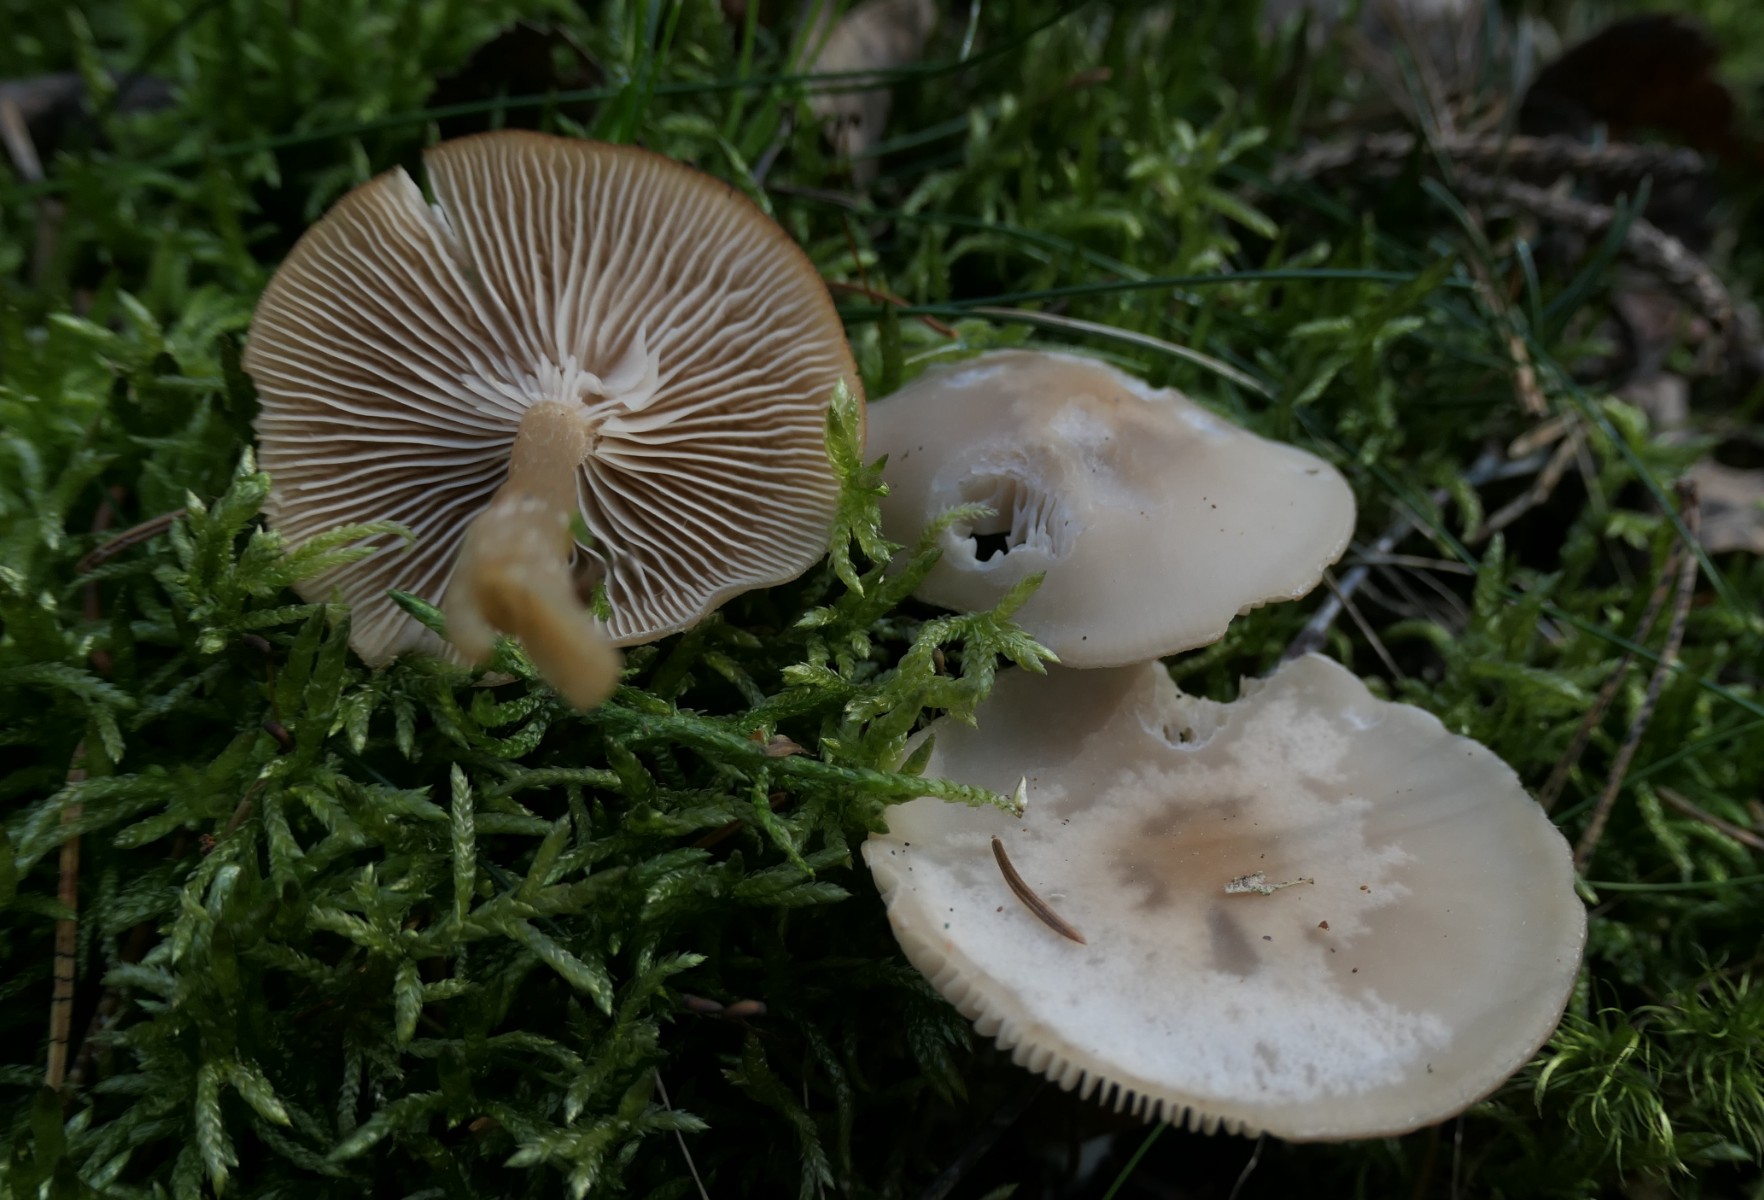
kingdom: Fungi
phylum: Basidiomycota
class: Agaricomycetes
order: Agaricales
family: Tricholomataceae
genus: Clitocybe
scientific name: Clitocybe fragrans
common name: vellugtende tragthat
